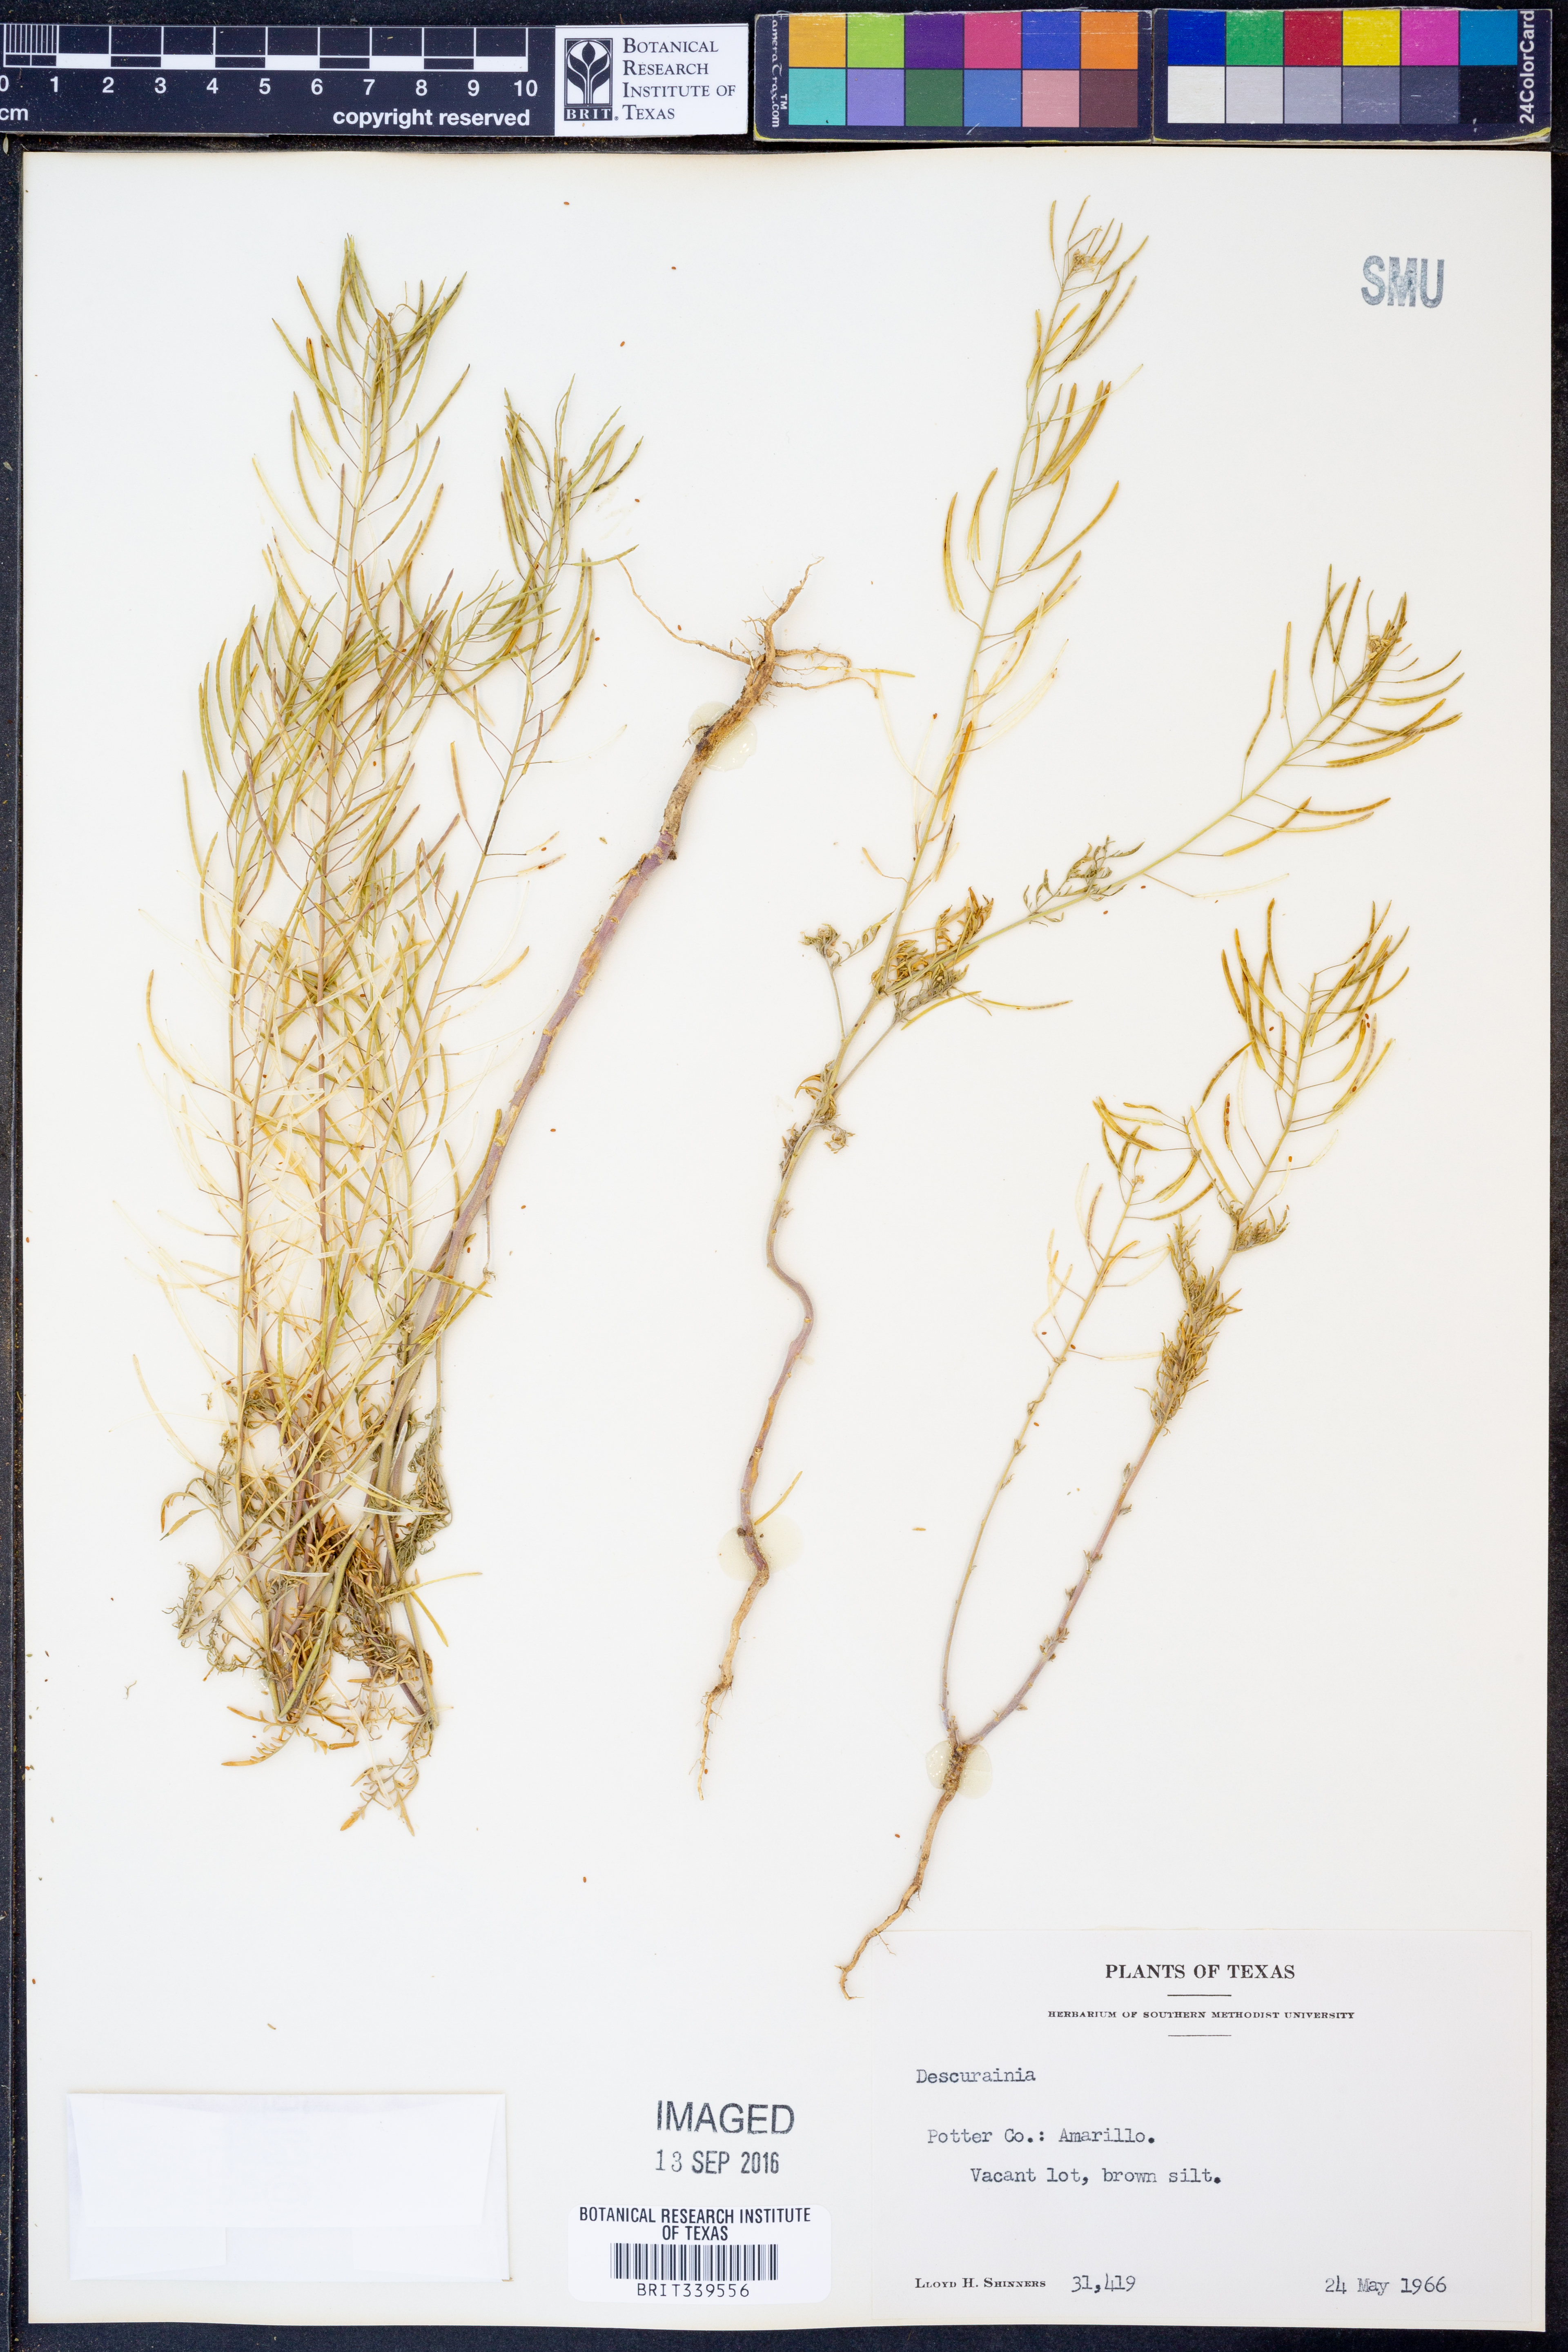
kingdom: Plantae
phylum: Tracheophyta
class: Magnoliopsida
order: Brassicales
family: Brassicaceae
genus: Descurainia
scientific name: Descurainia
